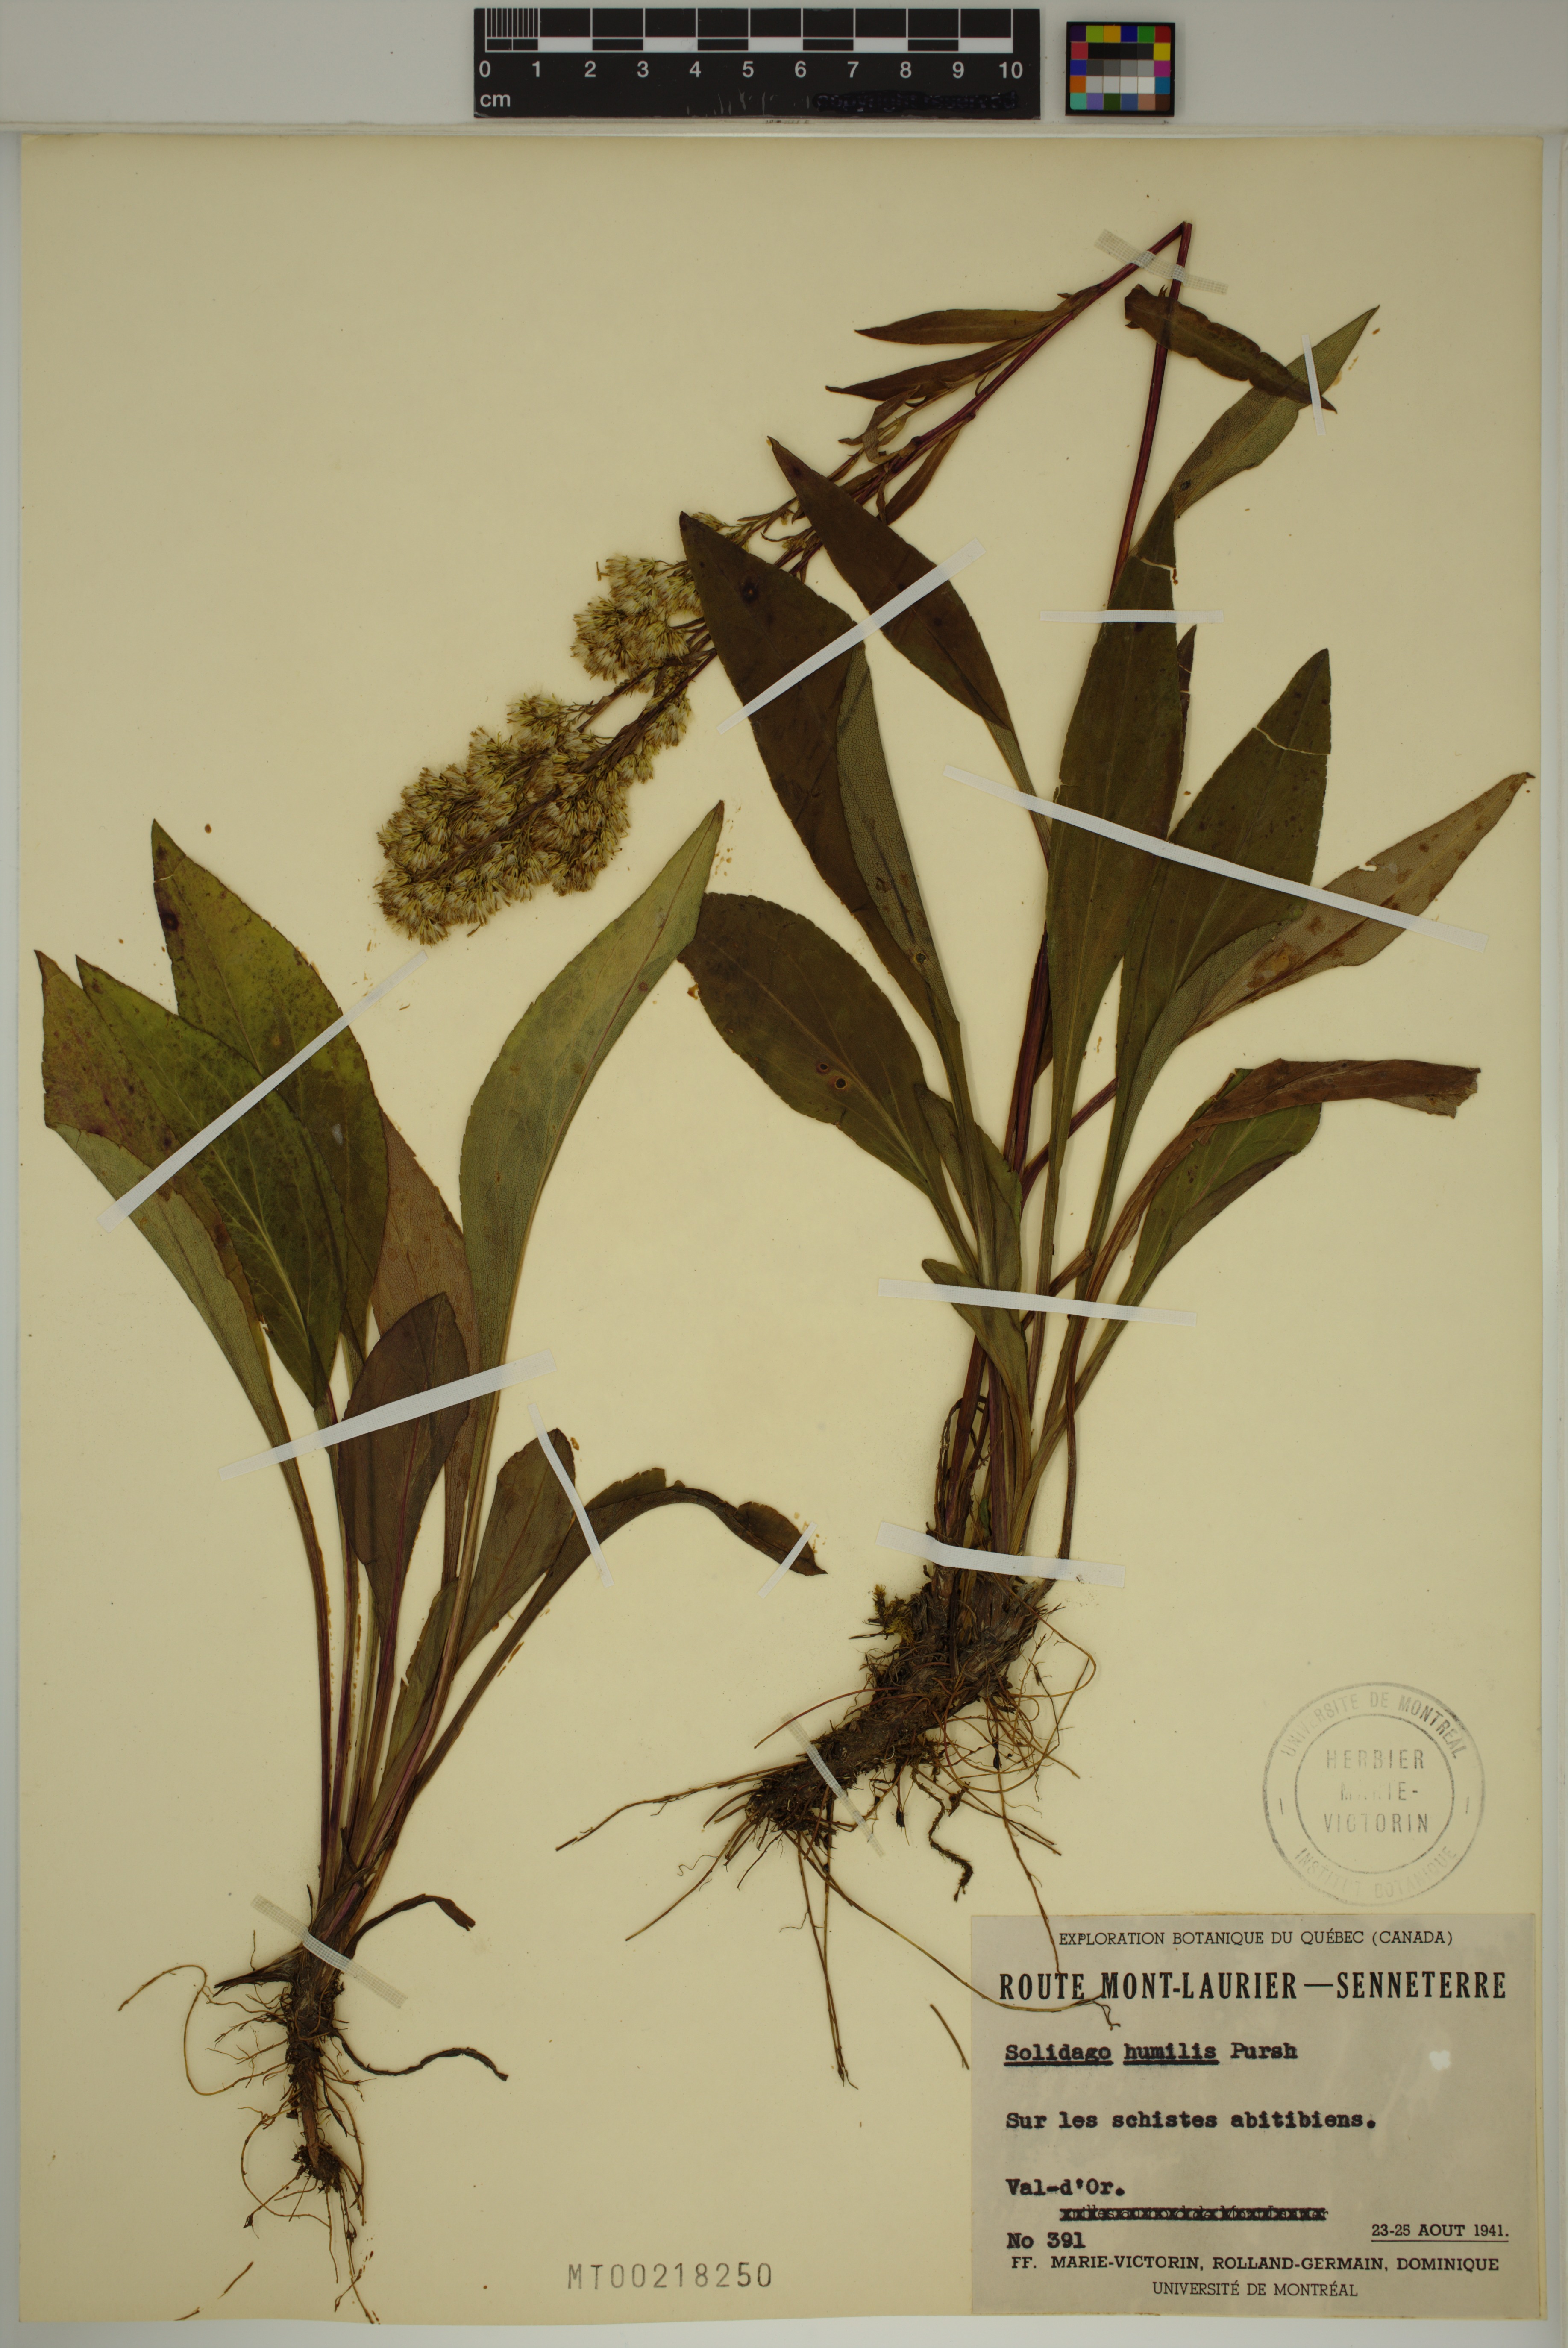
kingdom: Plantae
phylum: Tracheophyta
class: Magnoliopsida
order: Asterales
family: Asteraceae
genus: Solidago
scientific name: Solidago uliginosa
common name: Bog goldenrod
